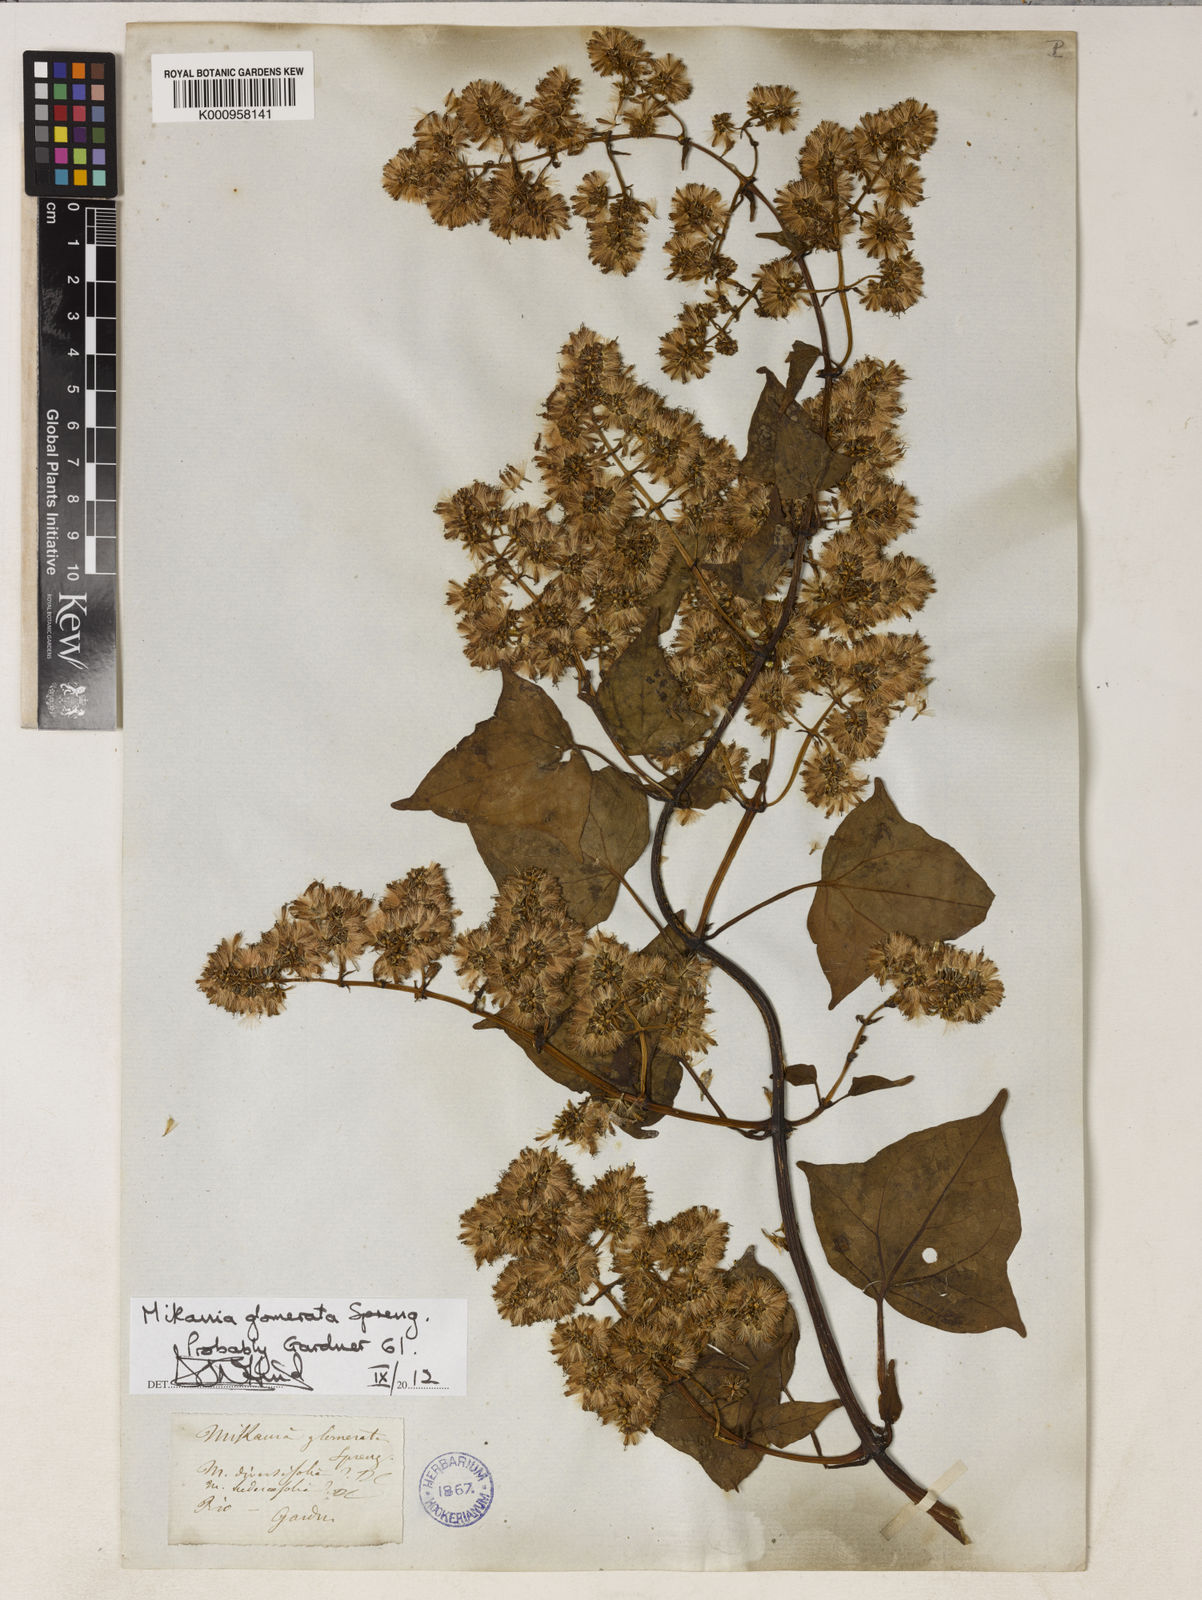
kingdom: Plantae
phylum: Tracheophyta
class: Magnoliopsida
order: Asterales
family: Asteraceae
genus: Mikania
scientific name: Mikania glomerata
